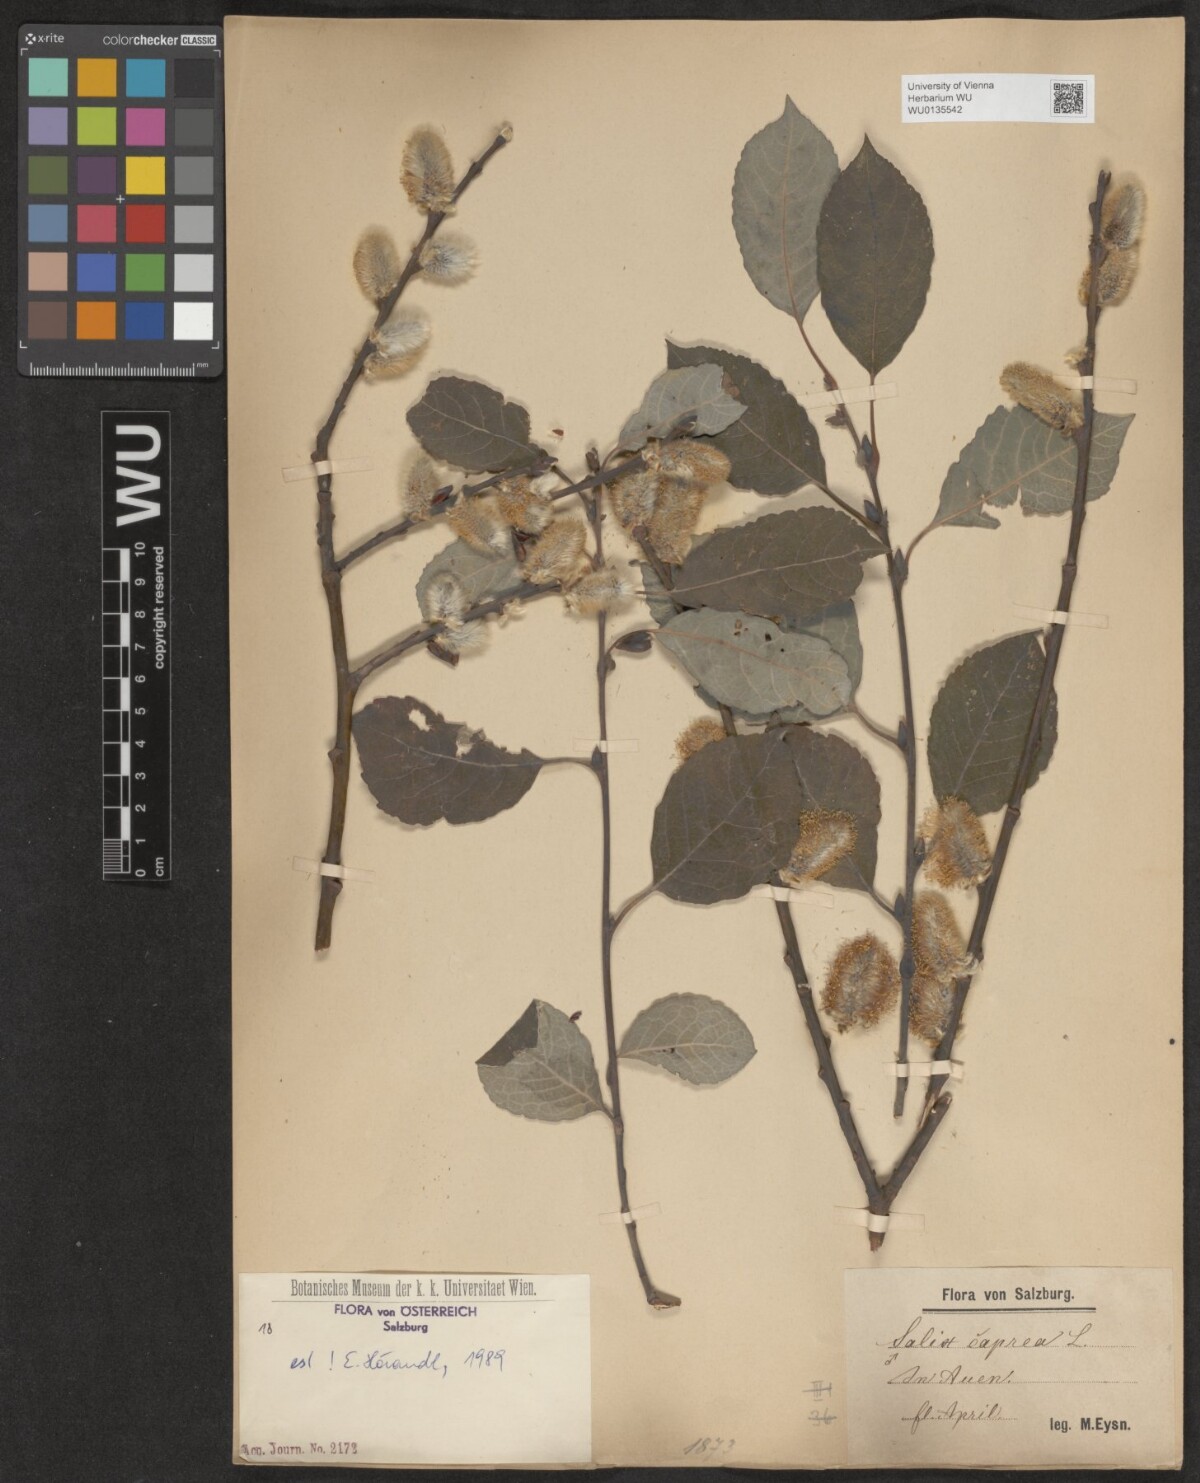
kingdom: Plantae
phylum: Tracheophyta
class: Magnoliopsida
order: Malpighiales
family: Salicaceae
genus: Salix
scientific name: Salix caprea
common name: Goat willow
